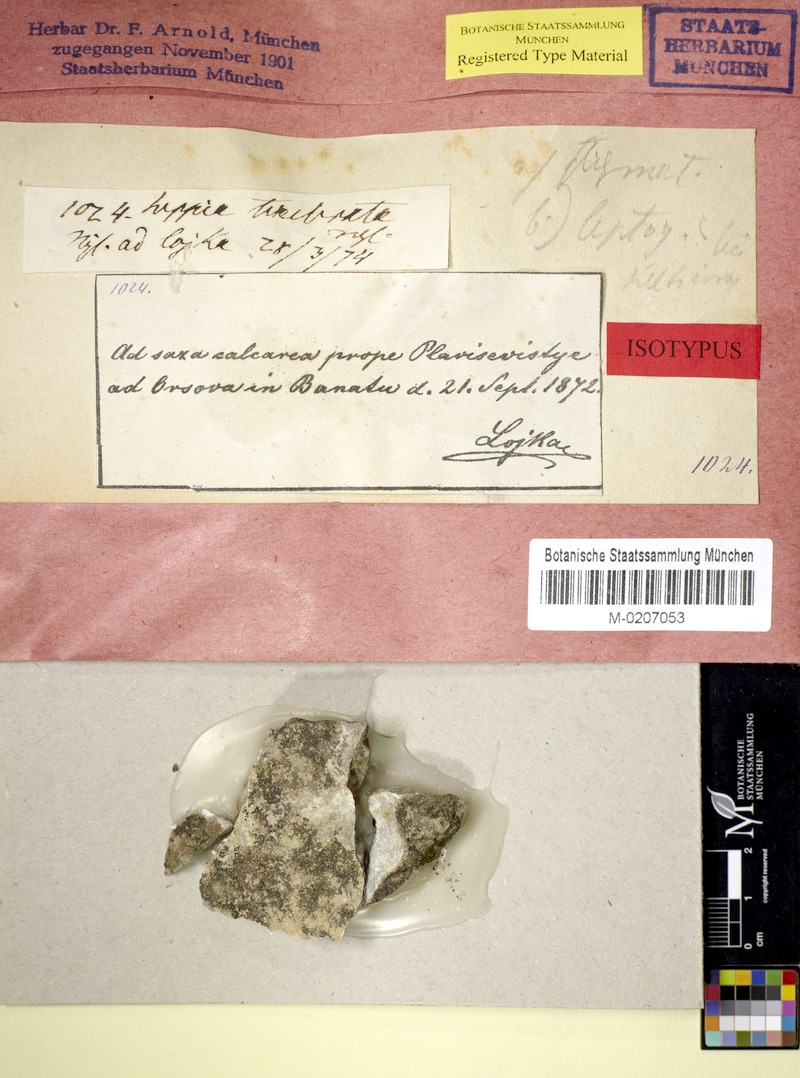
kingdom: Fungi
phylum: Ascomycota
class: Lichinomycetes
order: Lichinales
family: Peltulaceae
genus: Peltula
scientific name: Peltula tenebrata
